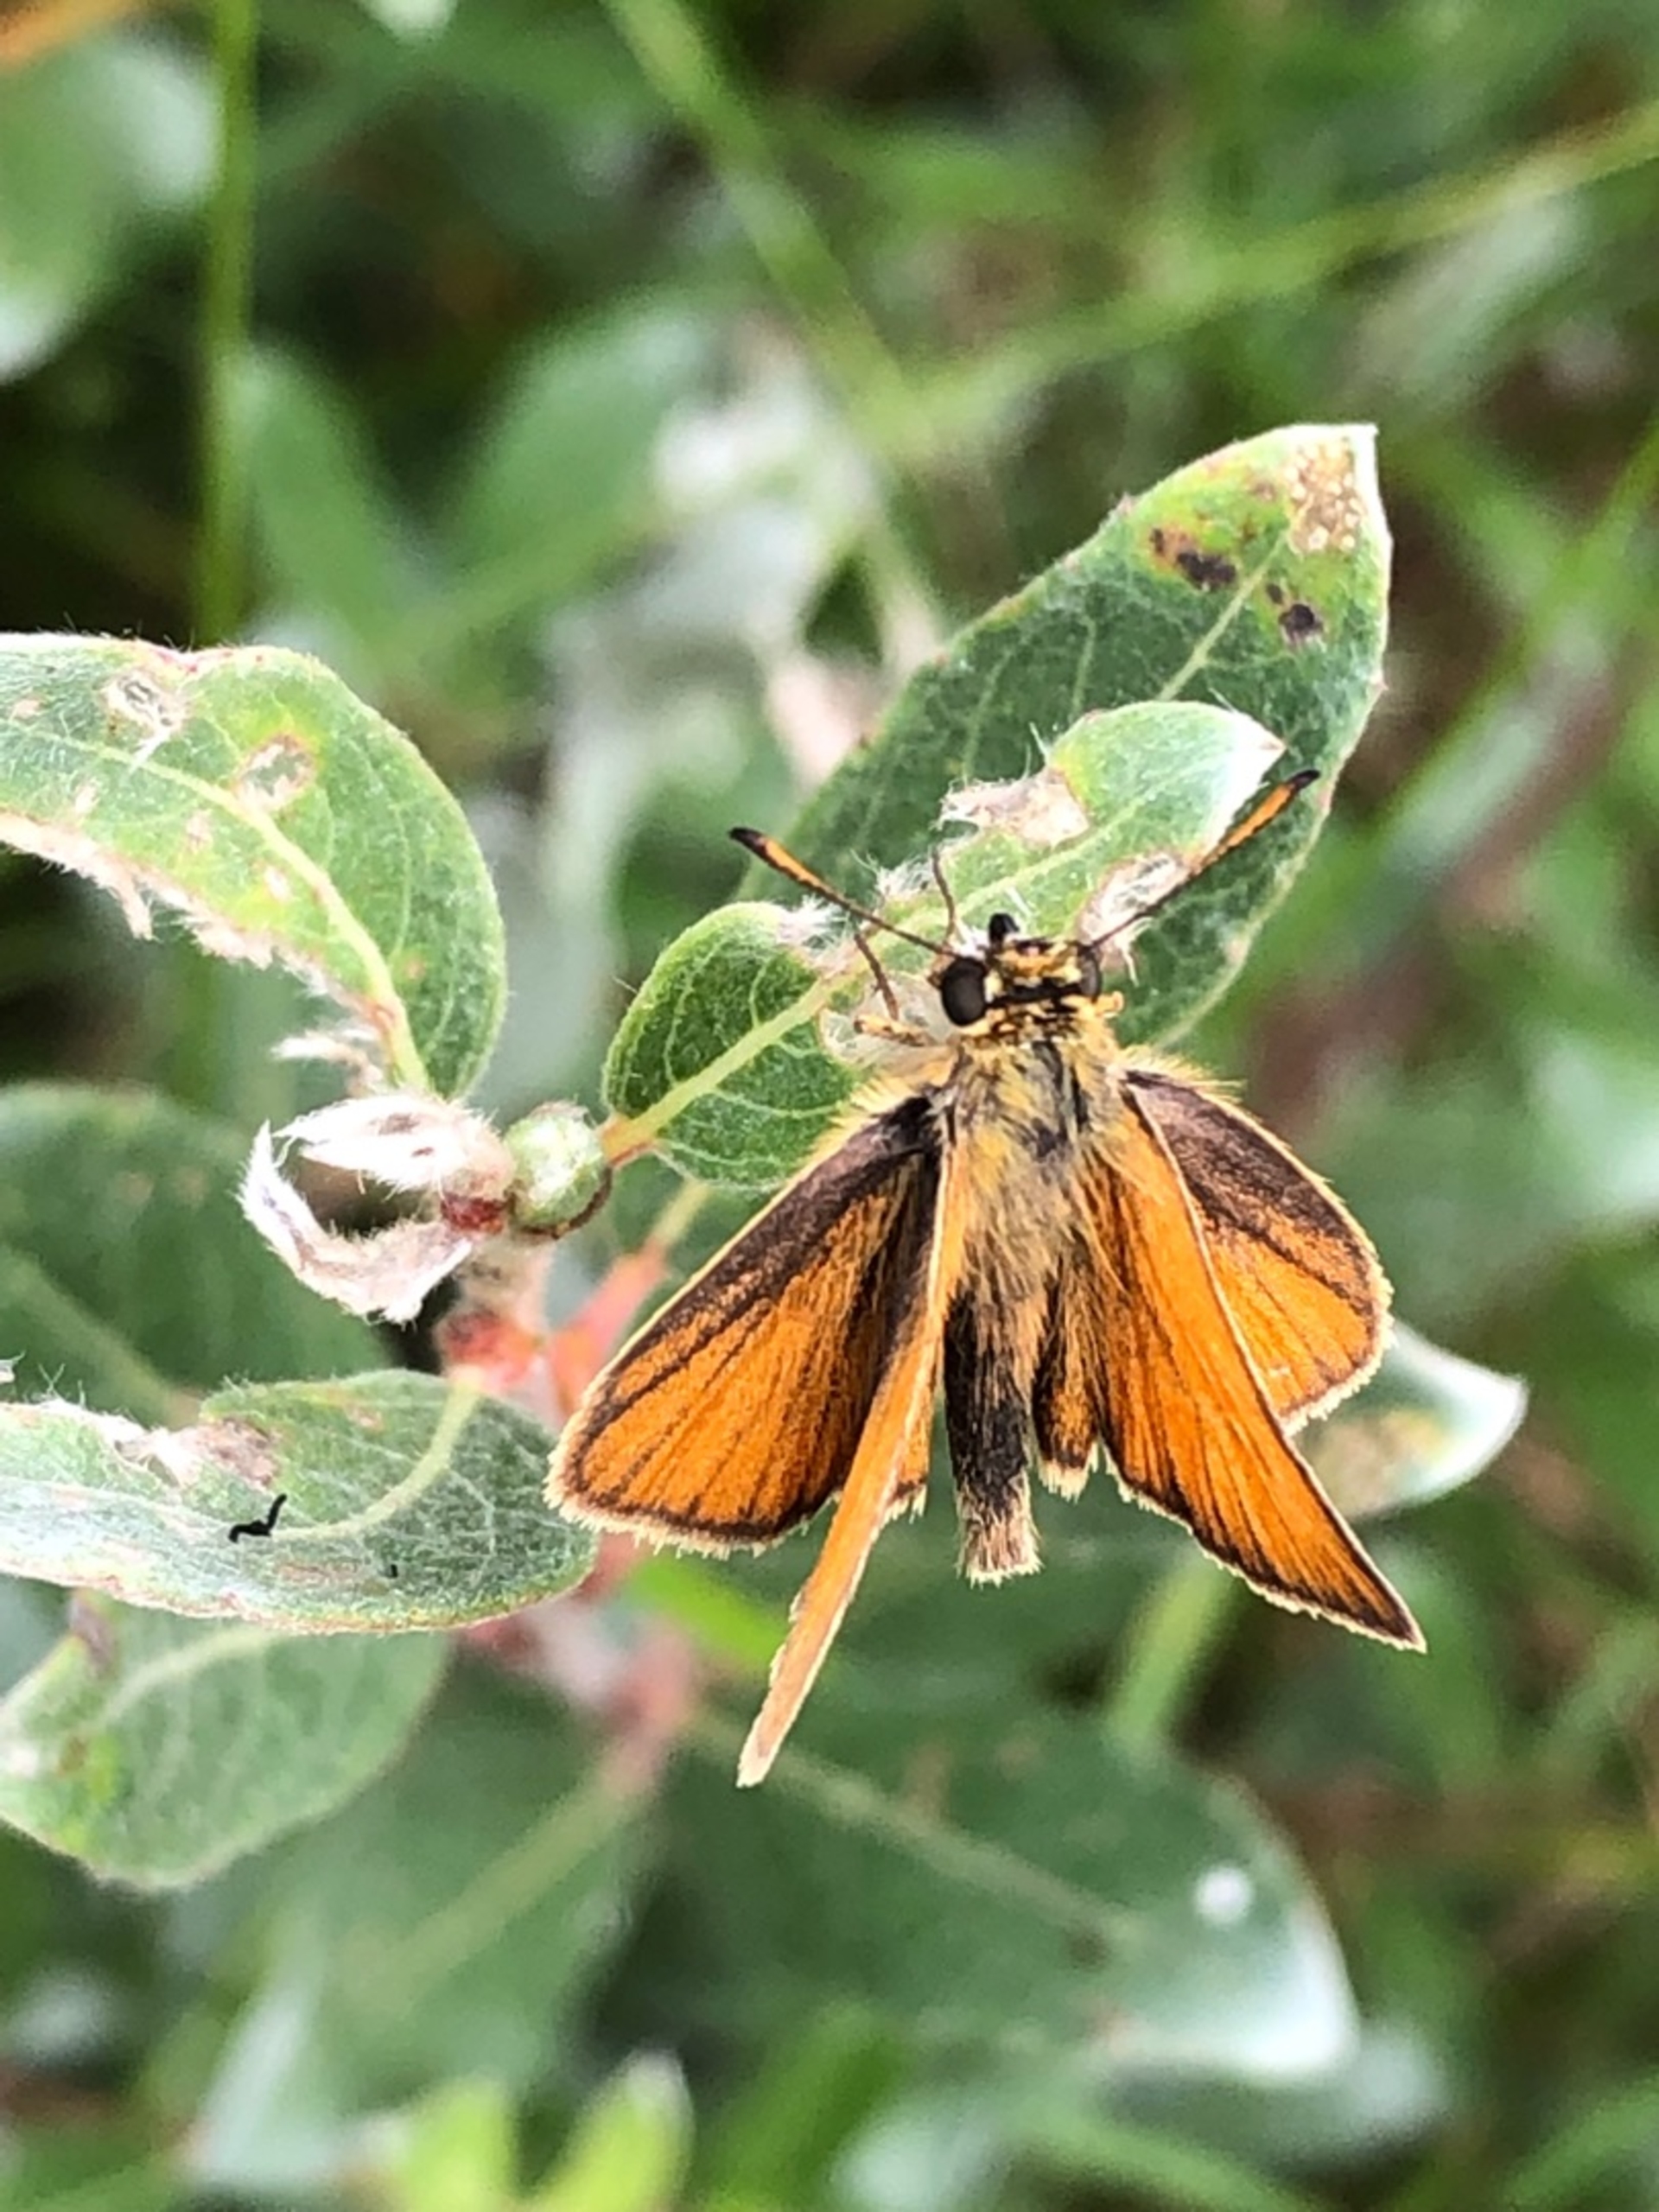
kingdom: Animalia
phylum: Arthropoda
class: Insecta
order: Lepidoptera
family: Hesperiidae
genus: Thymelicus
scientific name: Thymelicus lineola
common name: Stregbredpande
